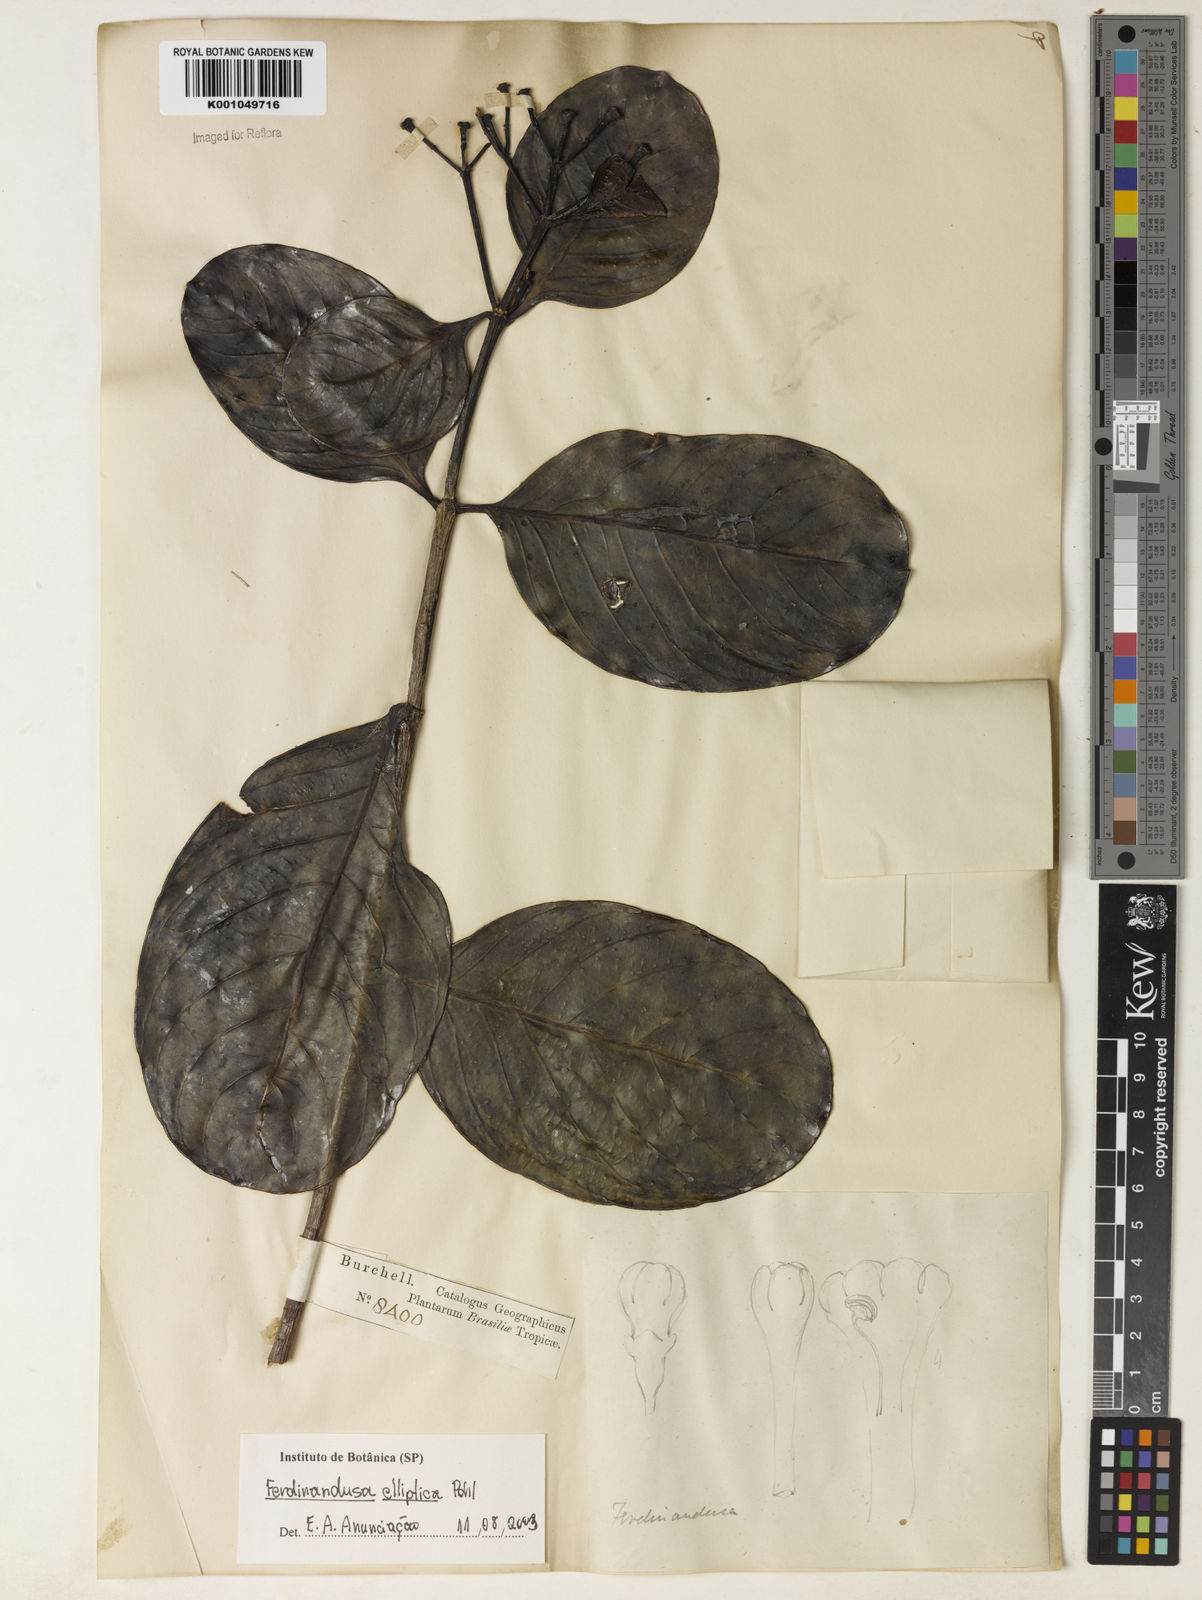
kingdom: Plantae
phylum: Tracheophyta
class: Magnoliopsida
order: Gentianales
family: Rubiaceae
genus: Ferdinandusa
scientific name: Ferdinandusa elliptica
